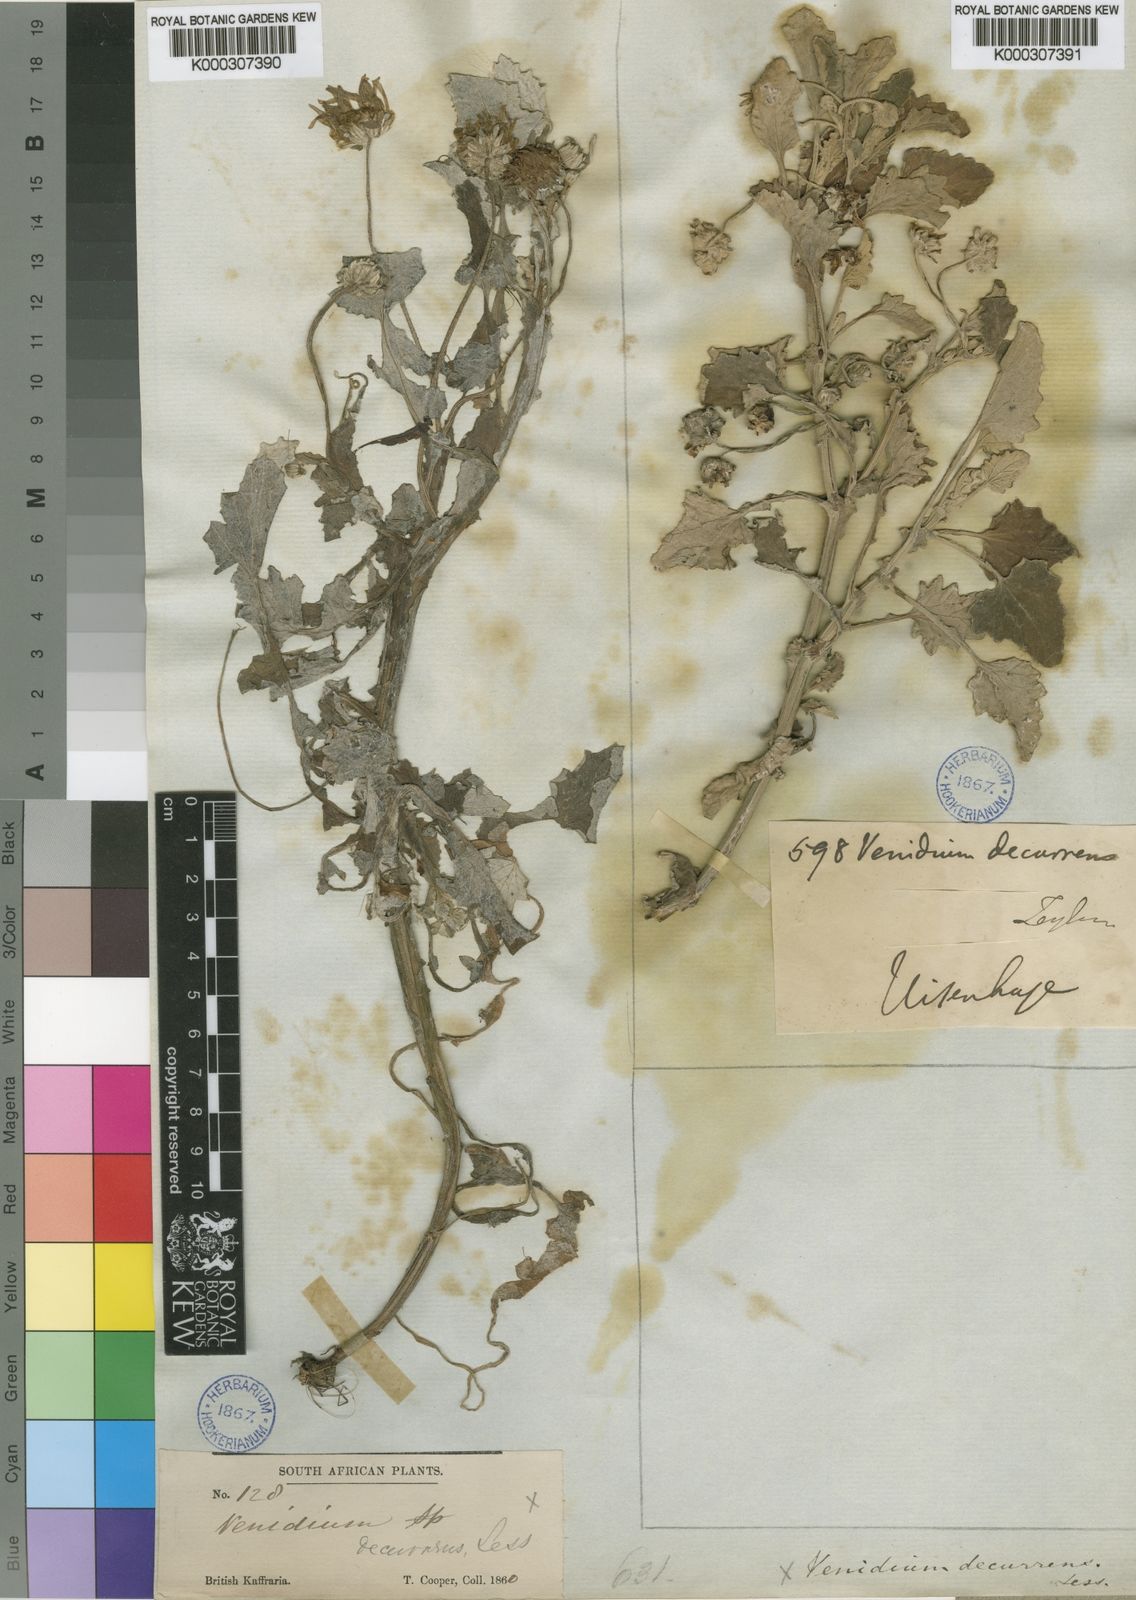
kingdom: Plantae
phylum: Tracheophyta
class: Magnoliopsida
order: Asterales
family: Asteraceae
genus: Arctotis
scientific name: Arctotis arctotoides
